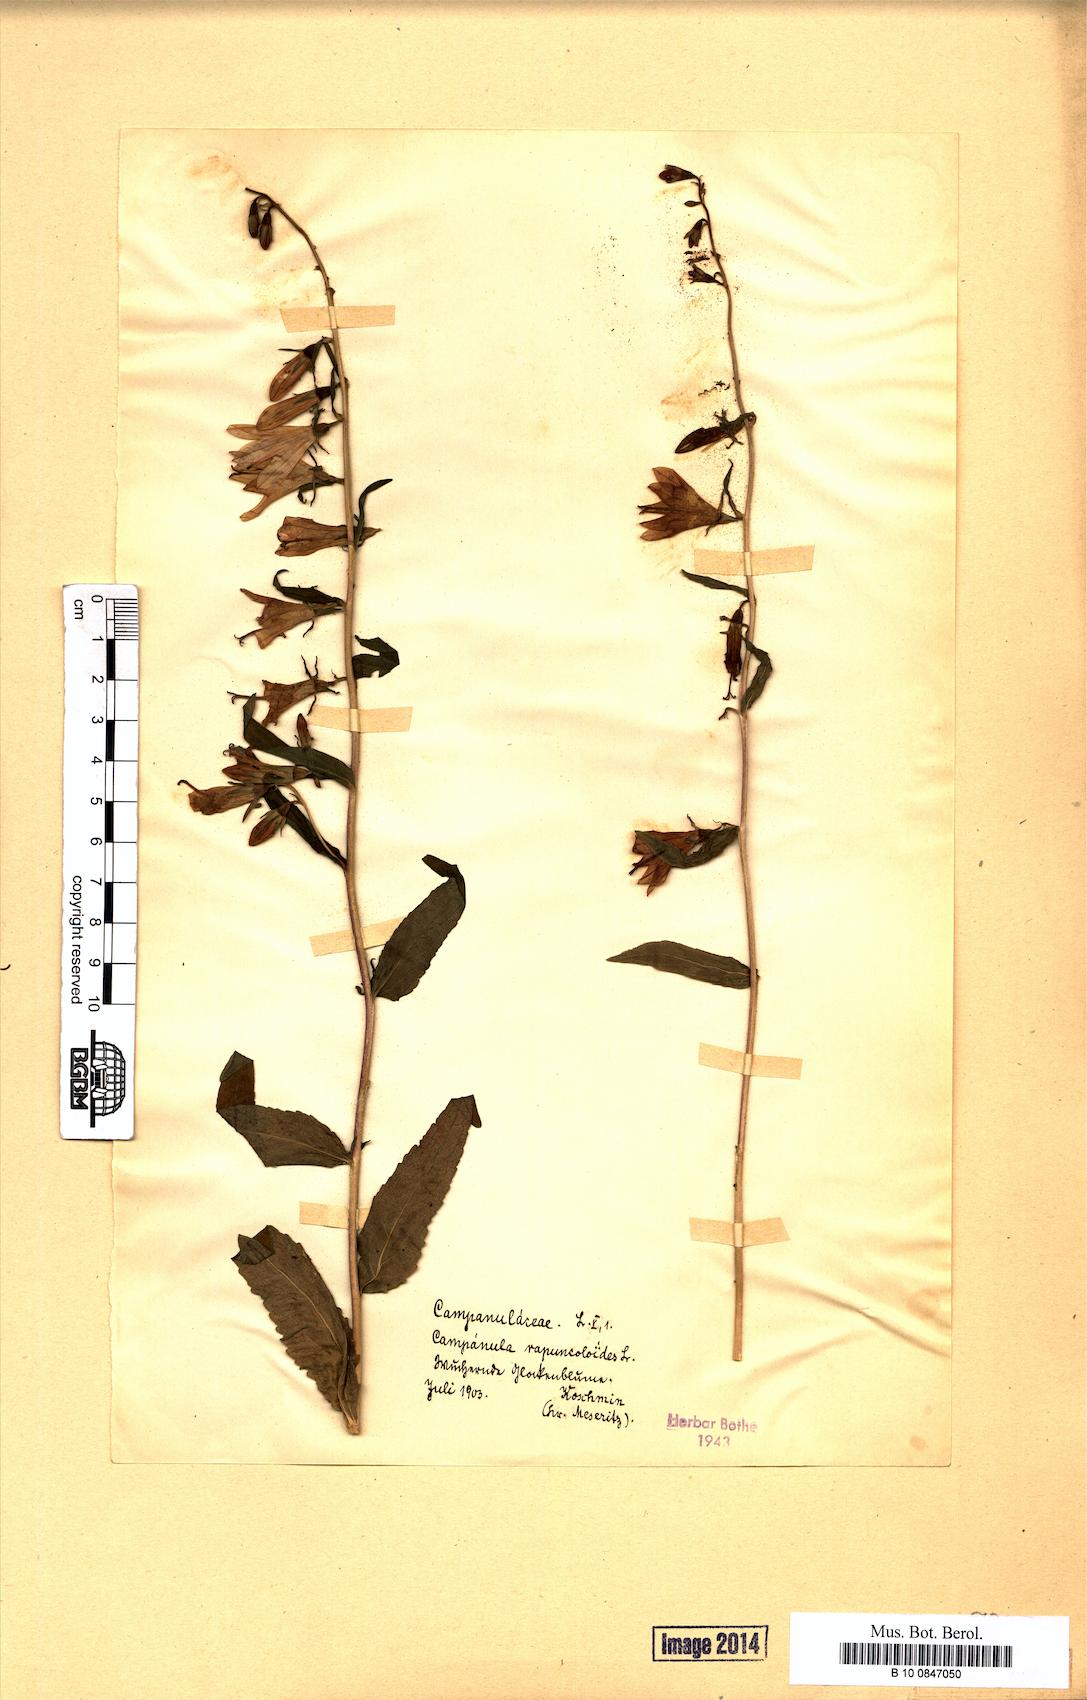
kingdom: Plantae
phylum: Tracheophyta
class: Magnoliopsida
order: Asterales
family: Campanulaceae
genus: Campanula
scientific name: Campanula rapunculoides
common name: Creeping bellflower
